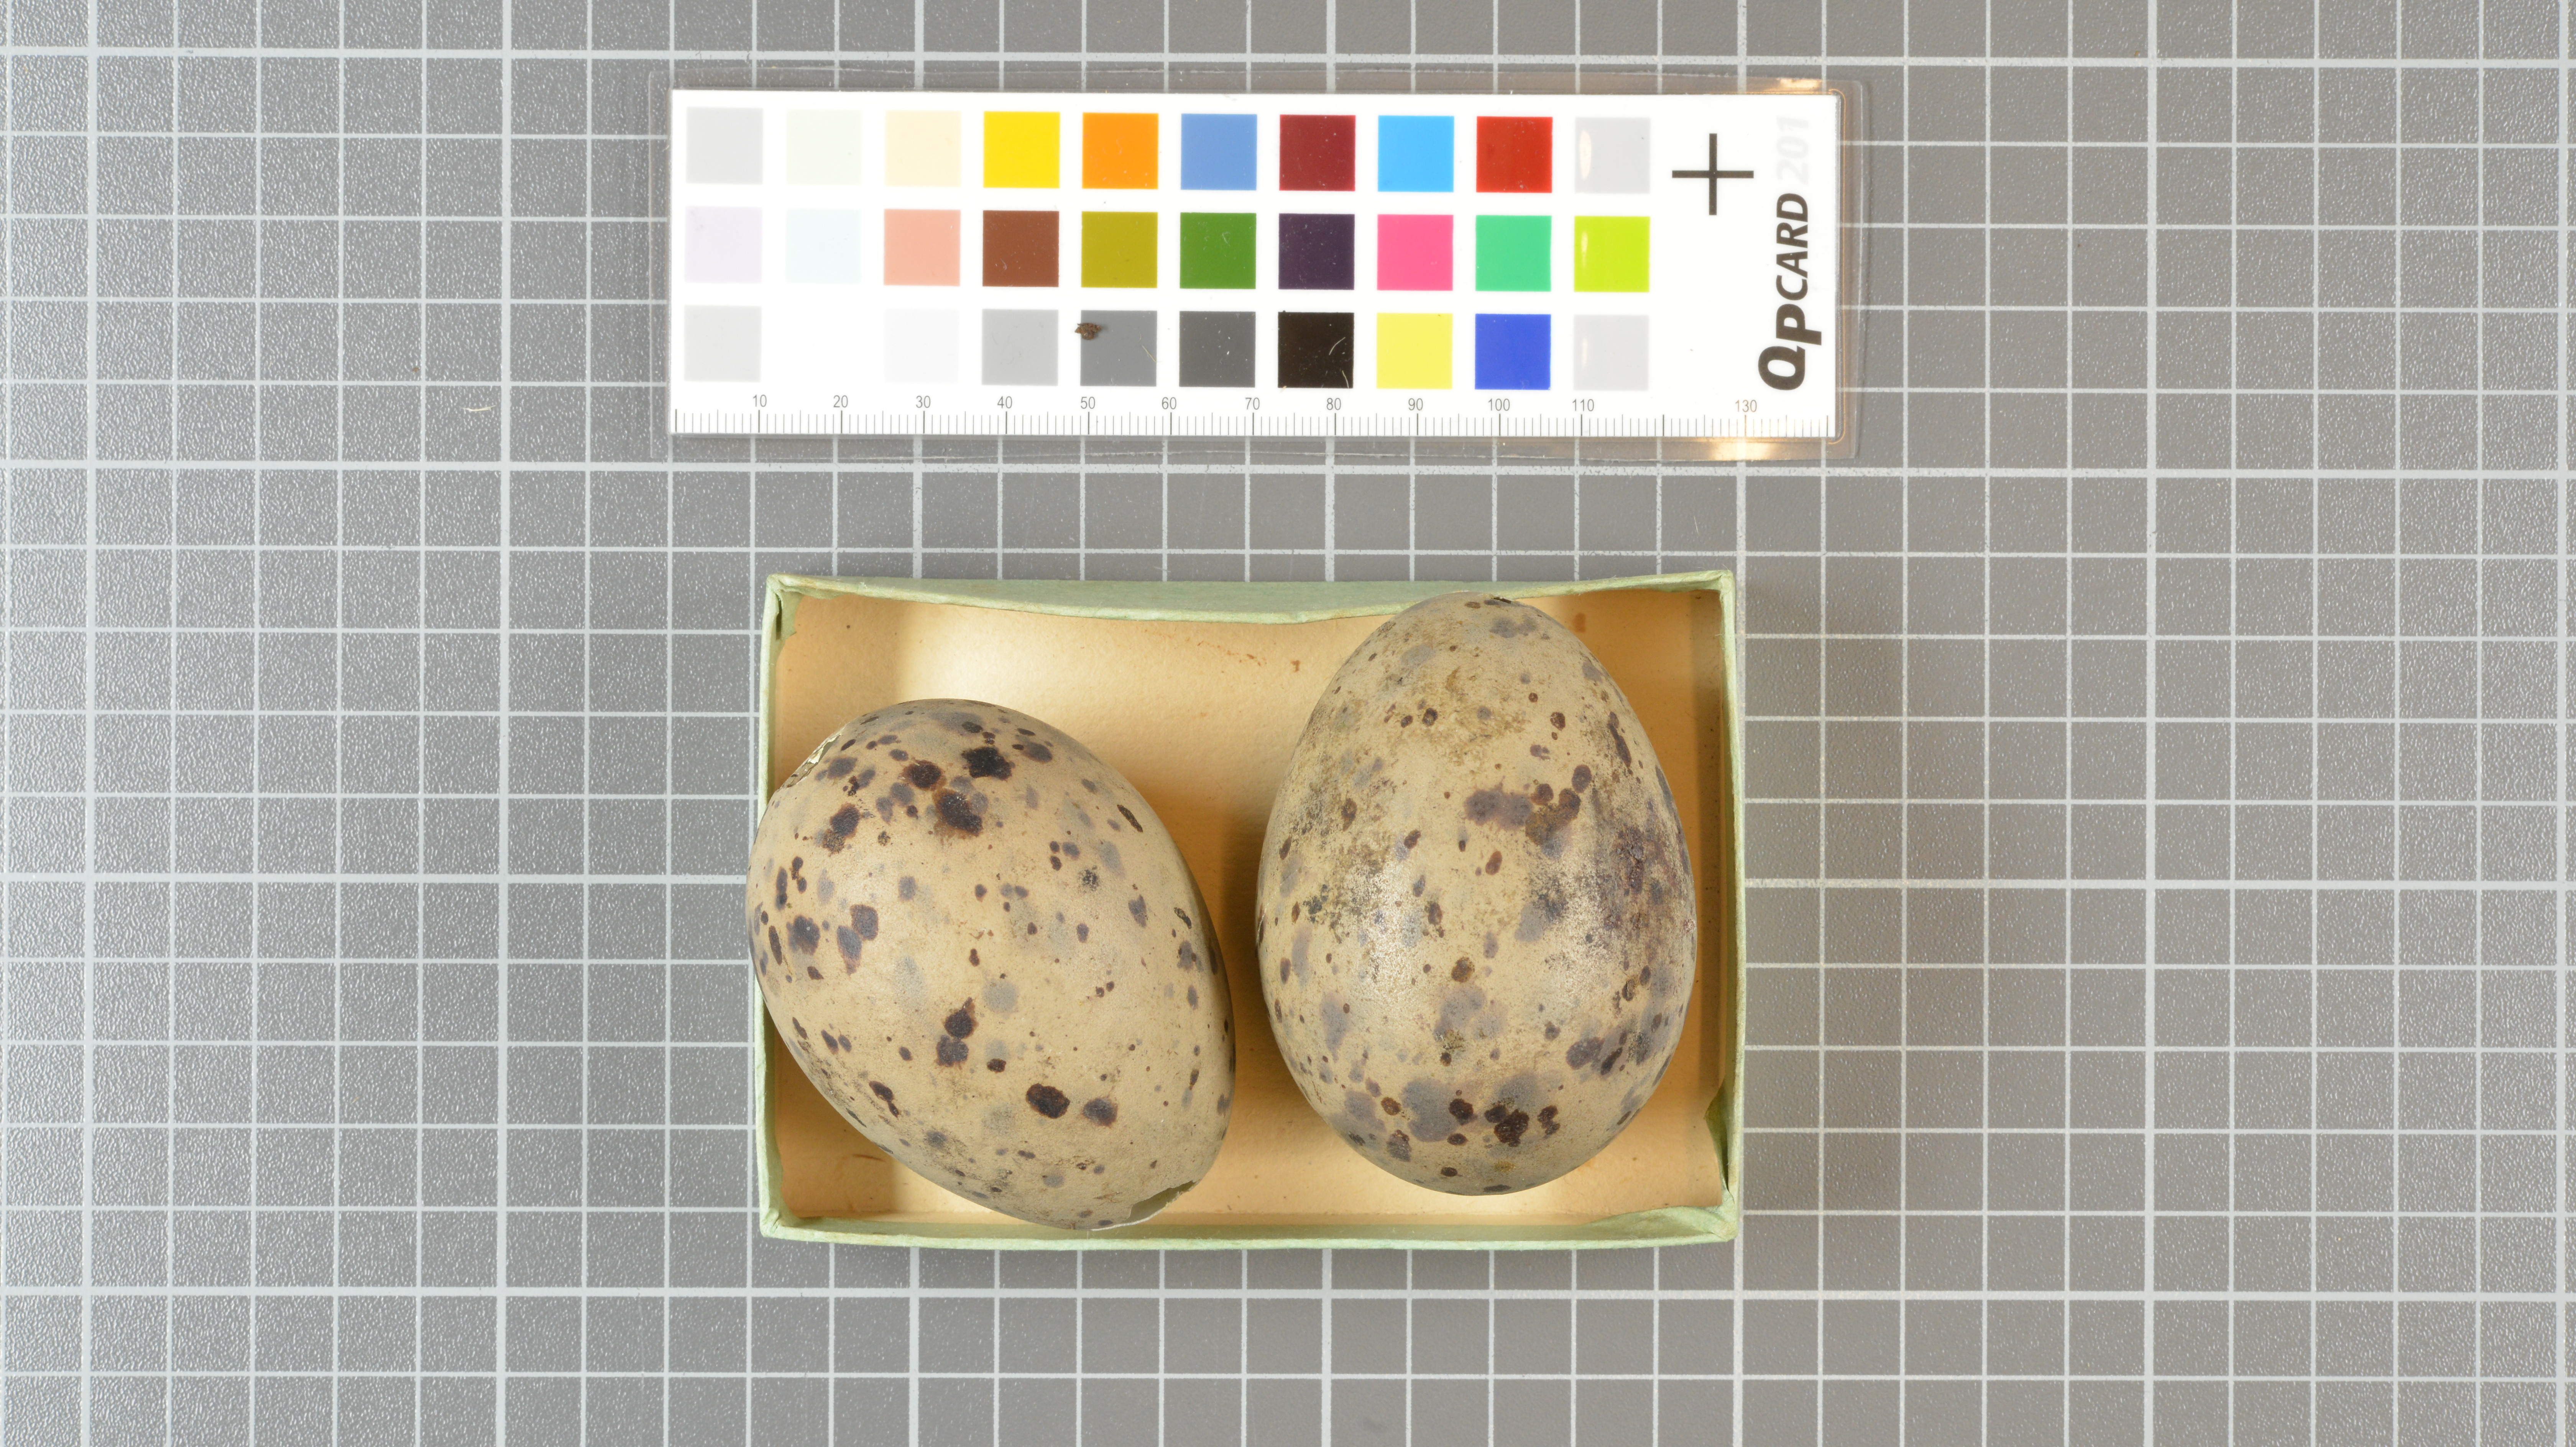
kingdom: Animalia
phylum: Chordata
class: Aves
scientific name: Aves
